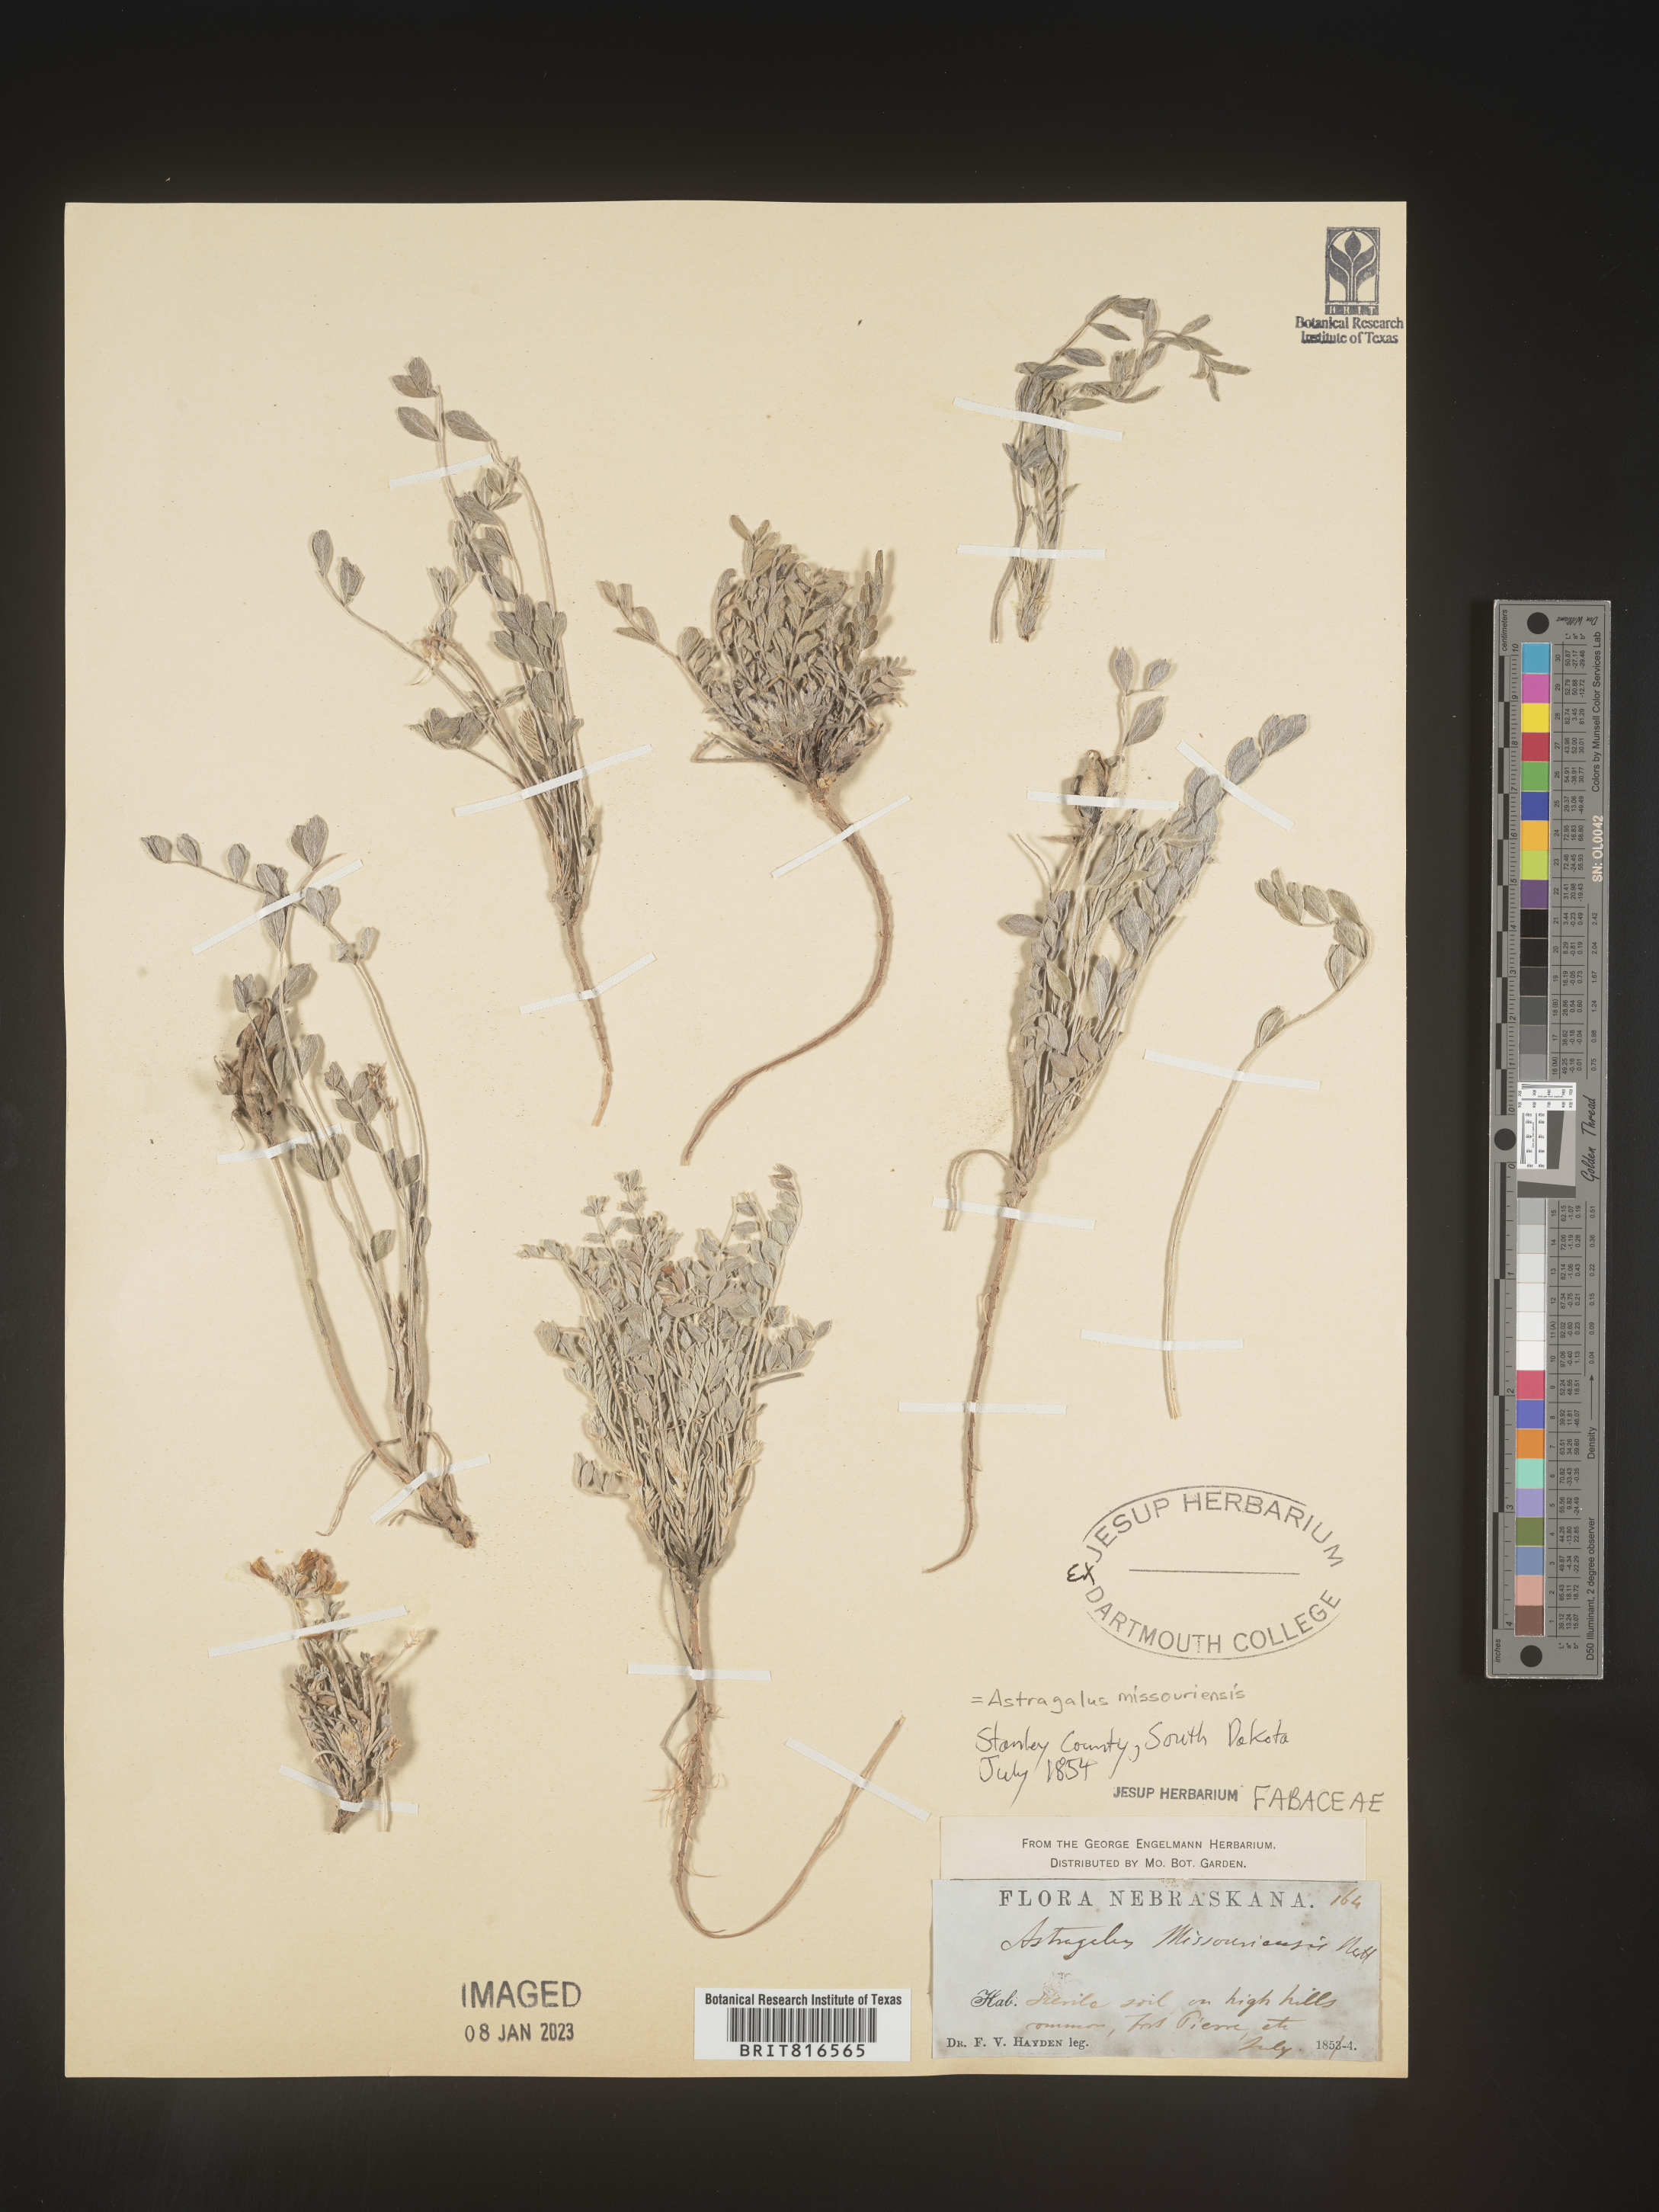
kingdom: Plantae
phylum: Tracheophyta
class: Magnoliopsida
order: Fabales
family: Fabaceae
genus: Astragalus
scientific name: Astragalus missouriensis
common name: Missouri milk-vetch
